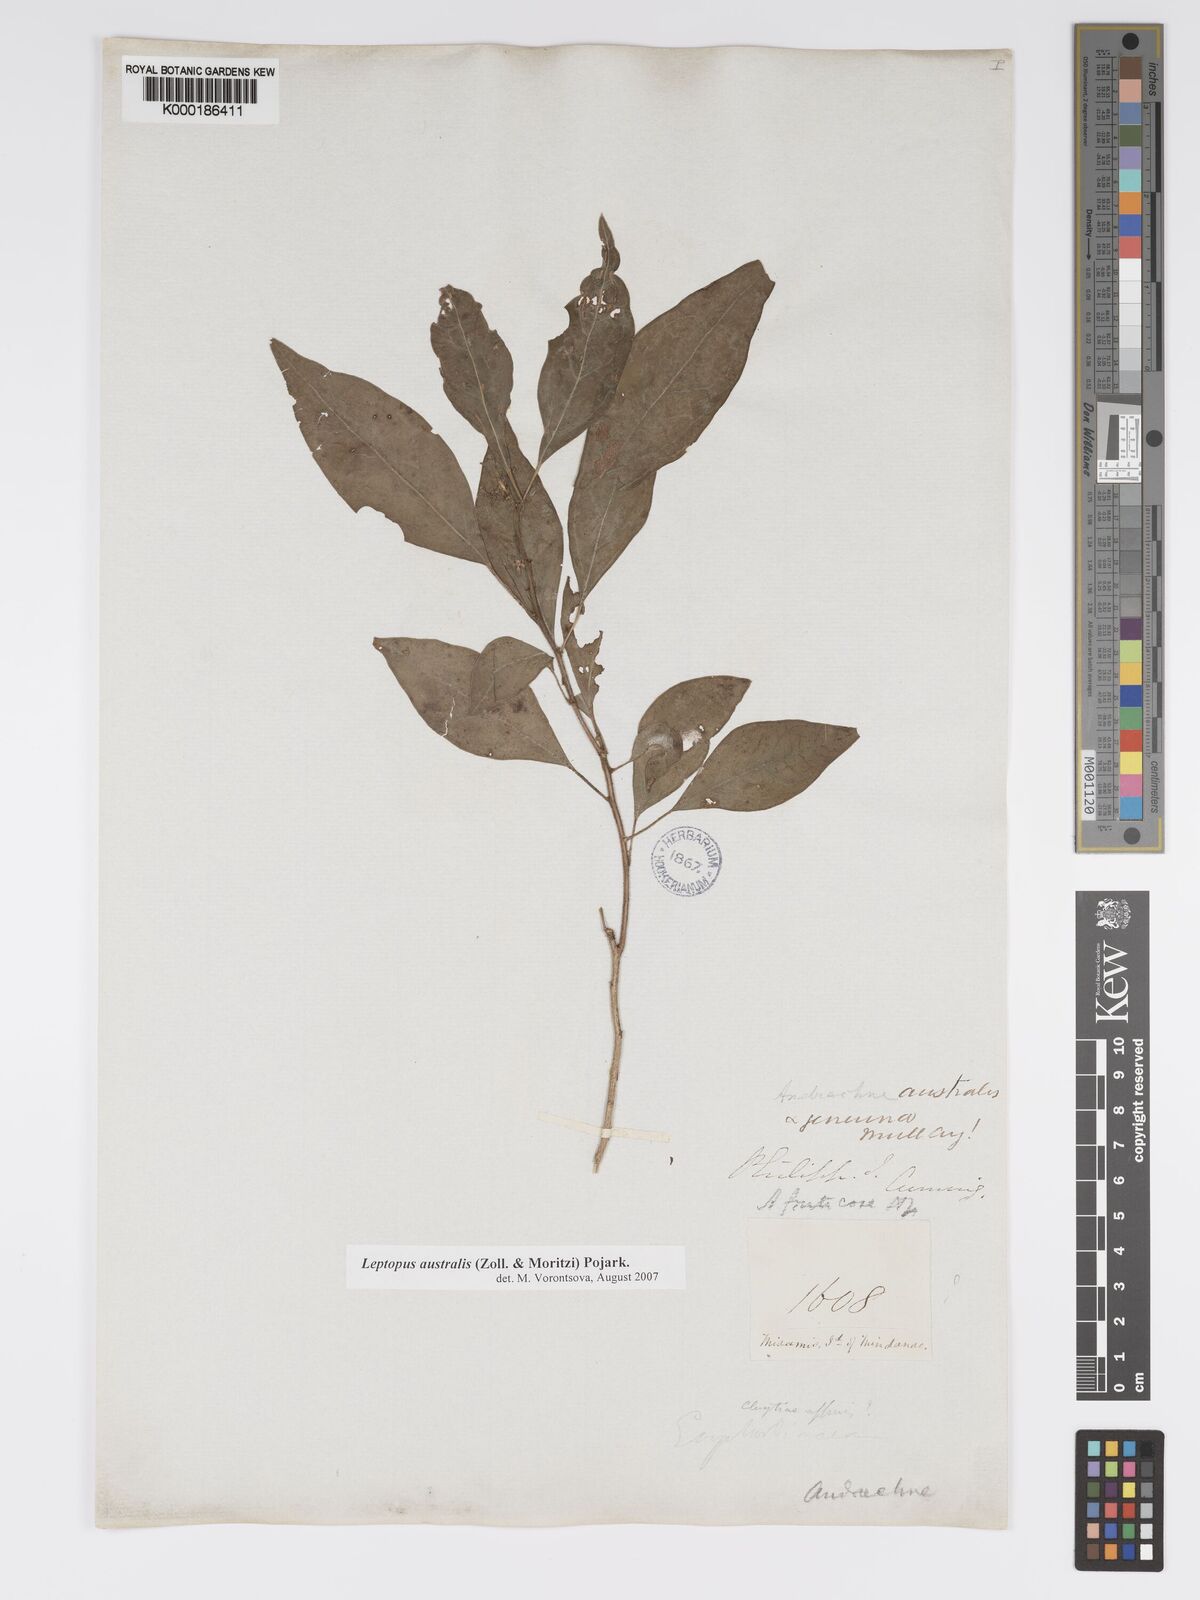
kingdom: Plantae
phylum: Tracheophyta
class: Magnoliopsida
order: Malpighiales
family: Phyllanthaceae
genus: Leptopus
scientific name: Leptopus australis
